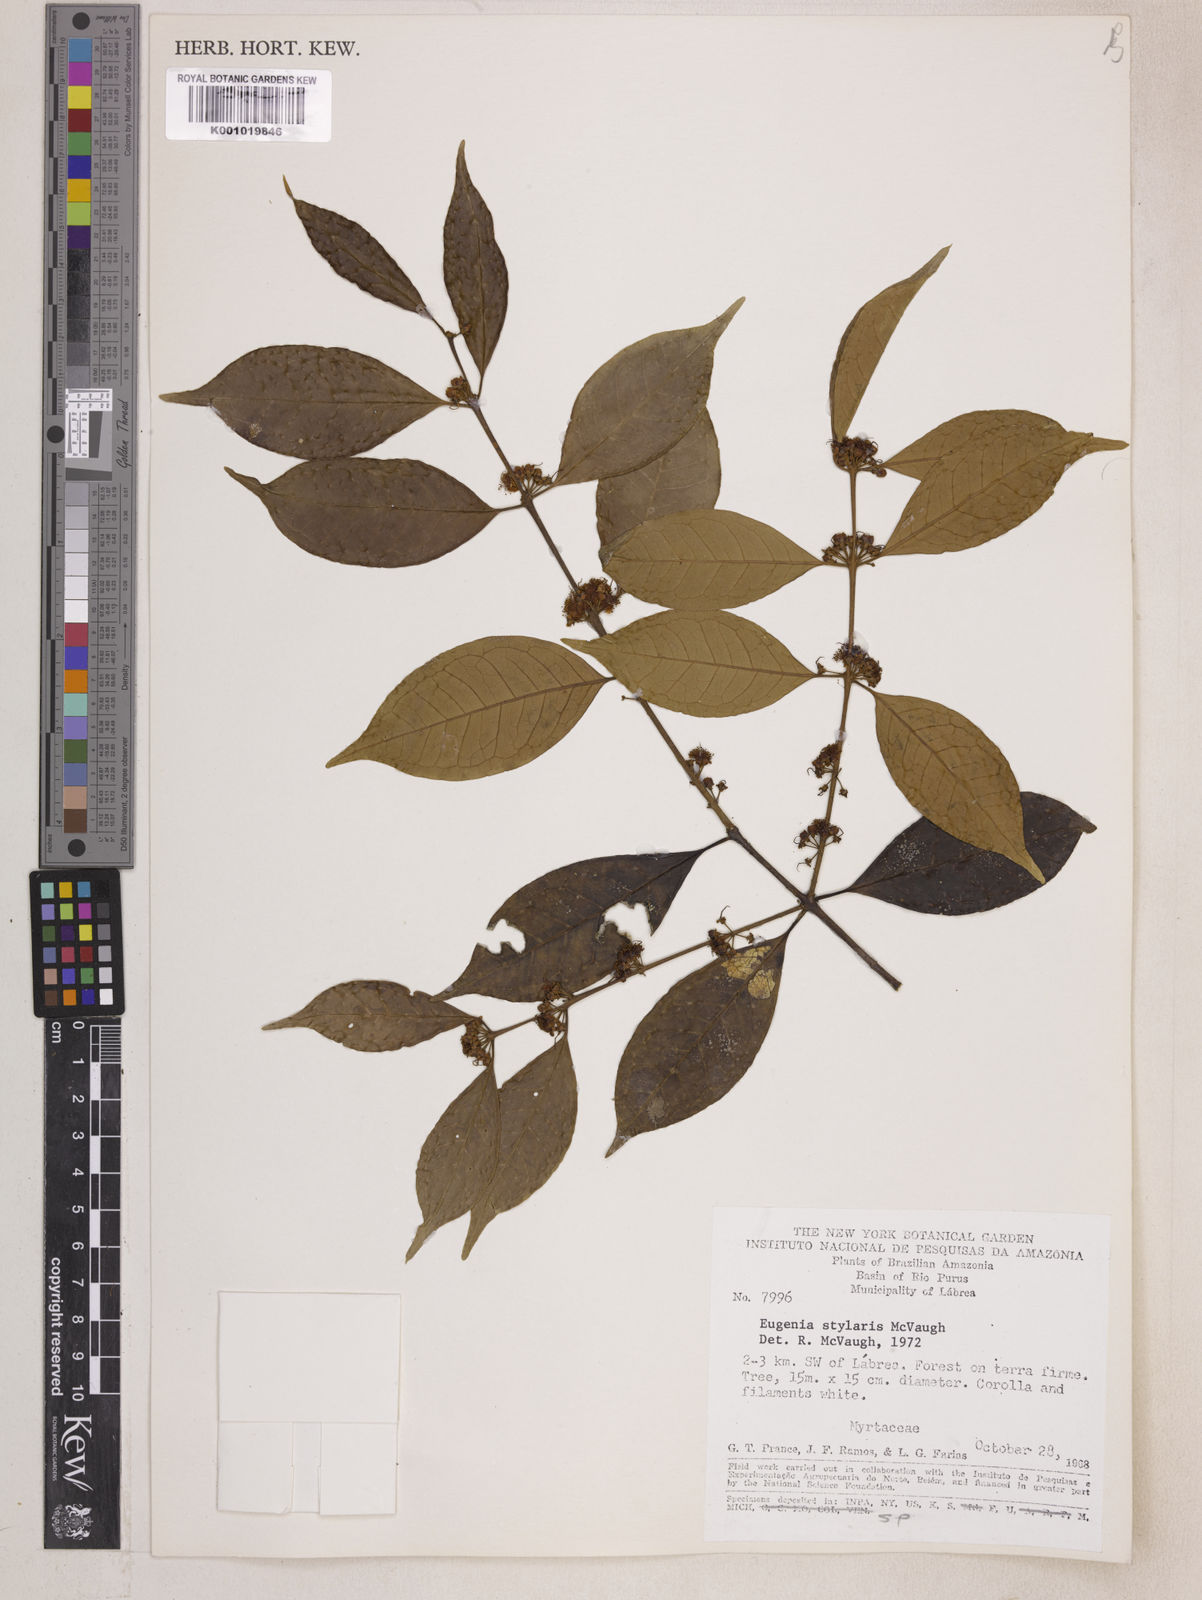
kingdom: Plantae
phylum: Tracheophyta
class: Magnoliopsida
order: Myrtales
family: Myrtaceae
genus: Eugenia
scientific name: Eugenia stylaris
